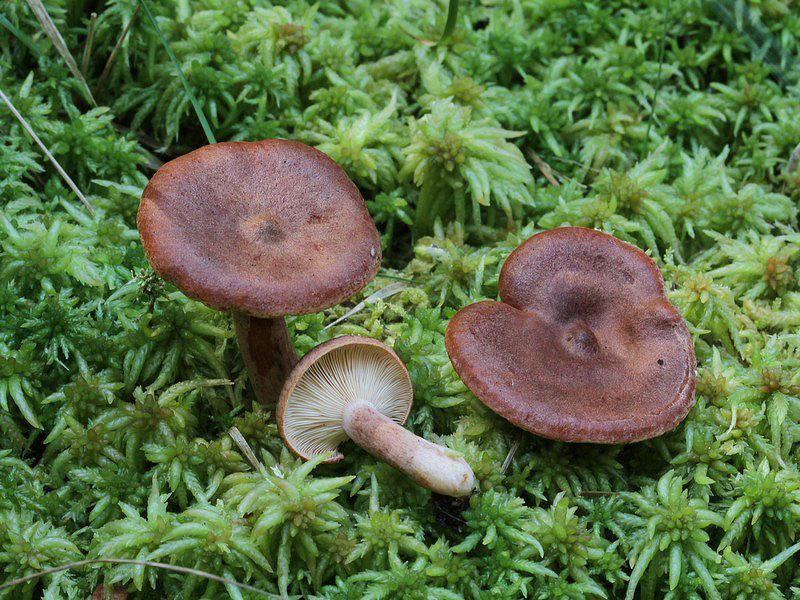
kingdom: Fungi
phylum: Basidiomycota
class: Agaricomycetes
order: Russulales
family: Russulaceae
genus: Lactarius
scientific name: Lactarius rufus
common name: rødbrun mælkehat
